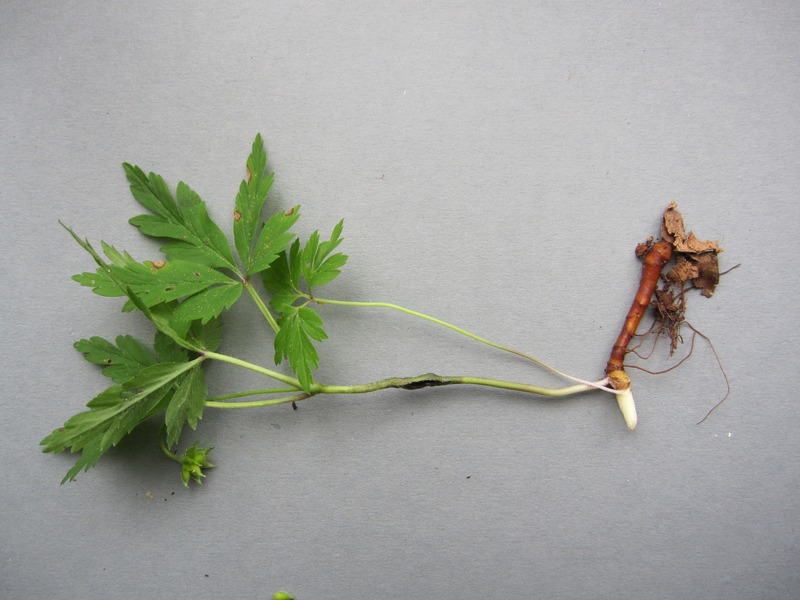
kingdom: Fungi
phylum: Basidiomycota
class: Ustilaginomycetes
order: Urocystidales
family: Urocystidaceae
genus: Urocystis
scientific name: Urocystis anemones
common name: Anemone smut
